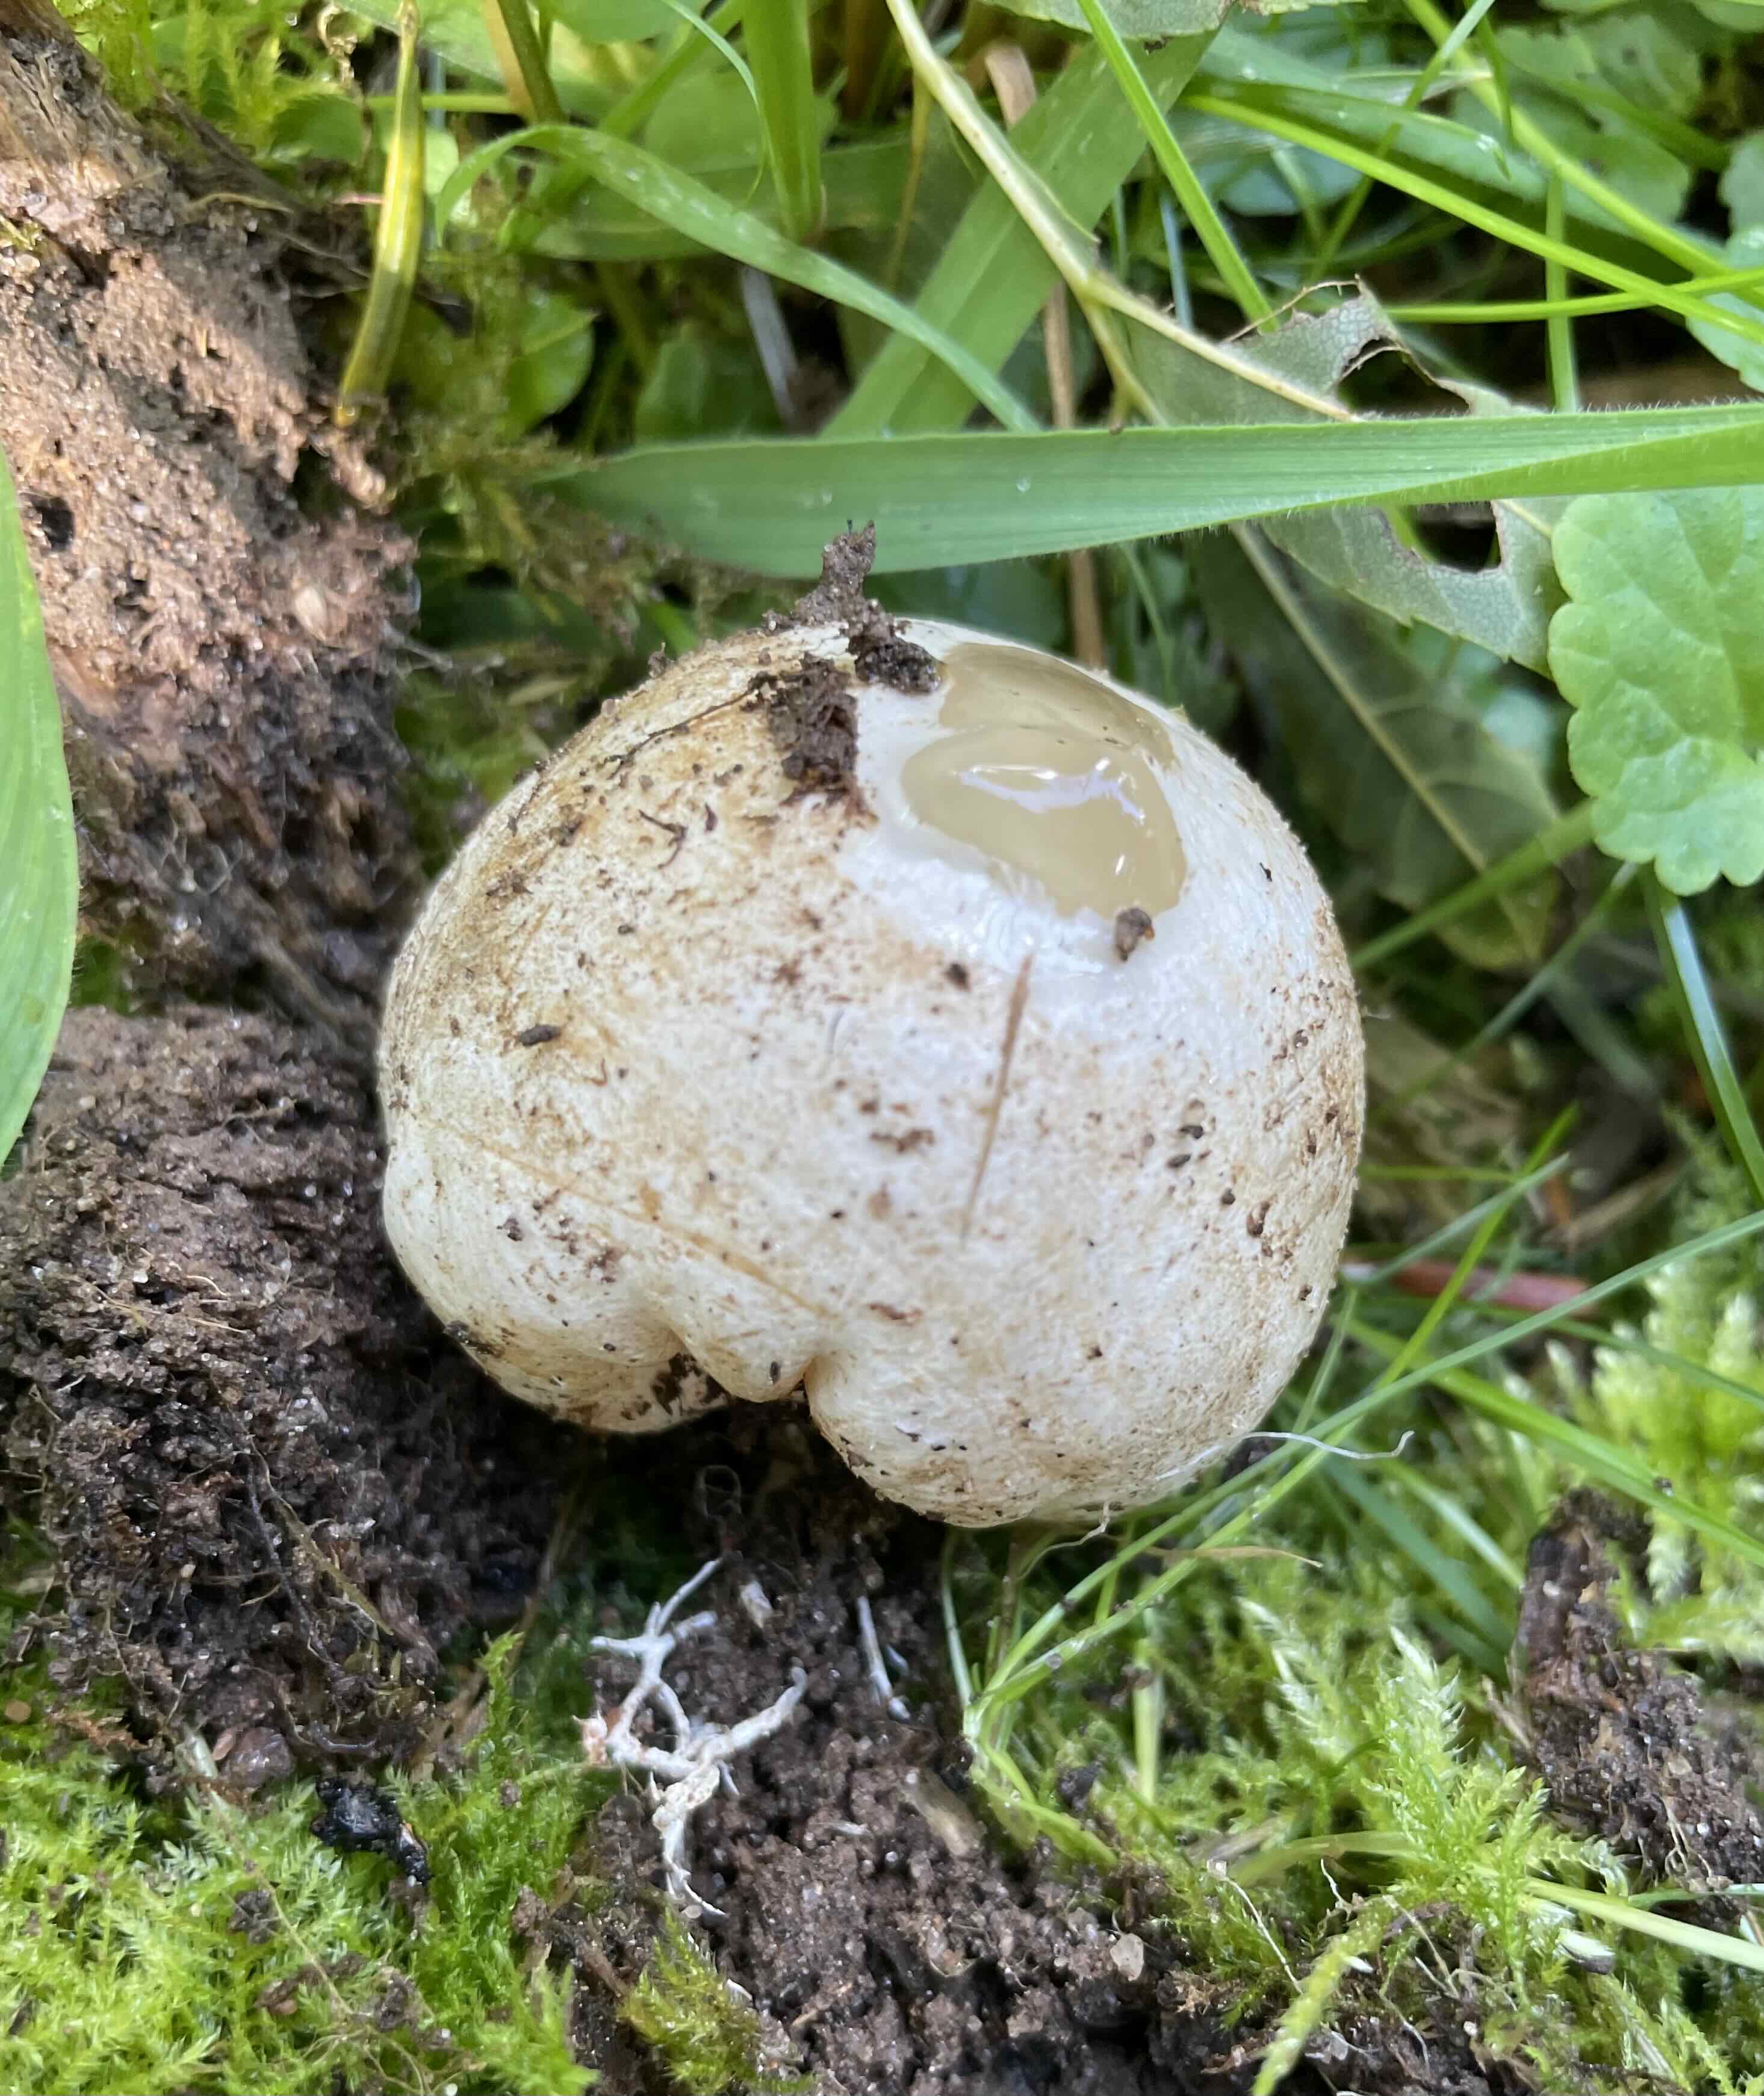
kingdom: Fungi
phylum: Basidiomycota
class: Agaricomycetes
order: Phallales
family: Phallaceae
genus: Phallus
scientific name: Phallus impudicus
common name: almindelig stinksvamp
